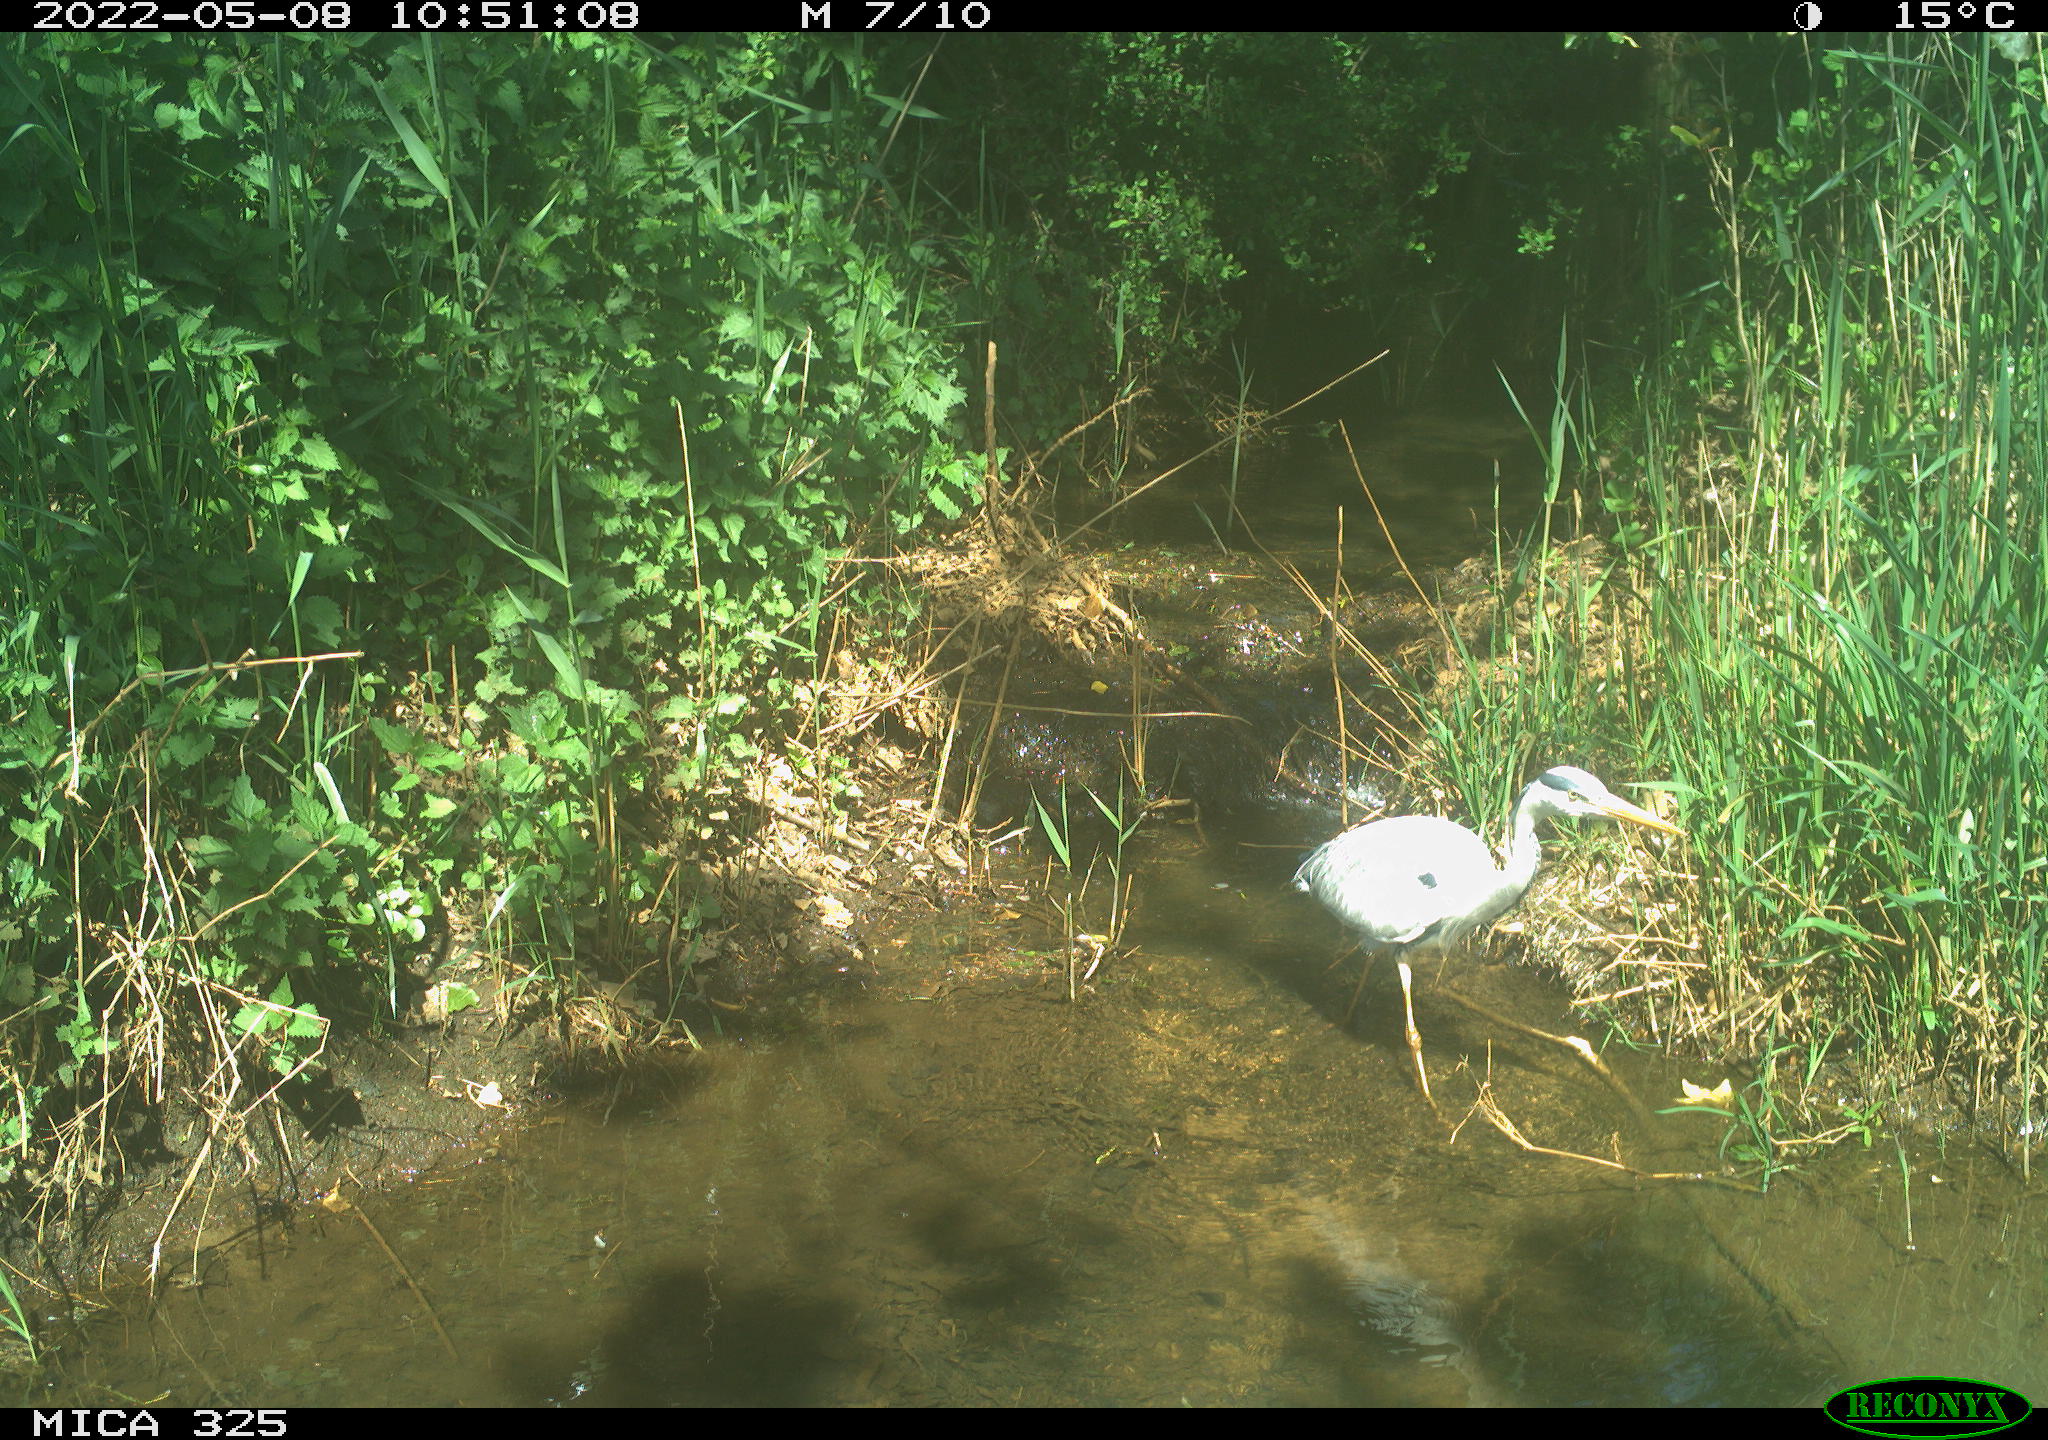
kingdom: Animalia
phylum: Chordata
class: Aves
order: Pelecaniformes
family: Ardeidae
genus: Ardea
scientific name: Ardea cinerea
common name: Grey heron
